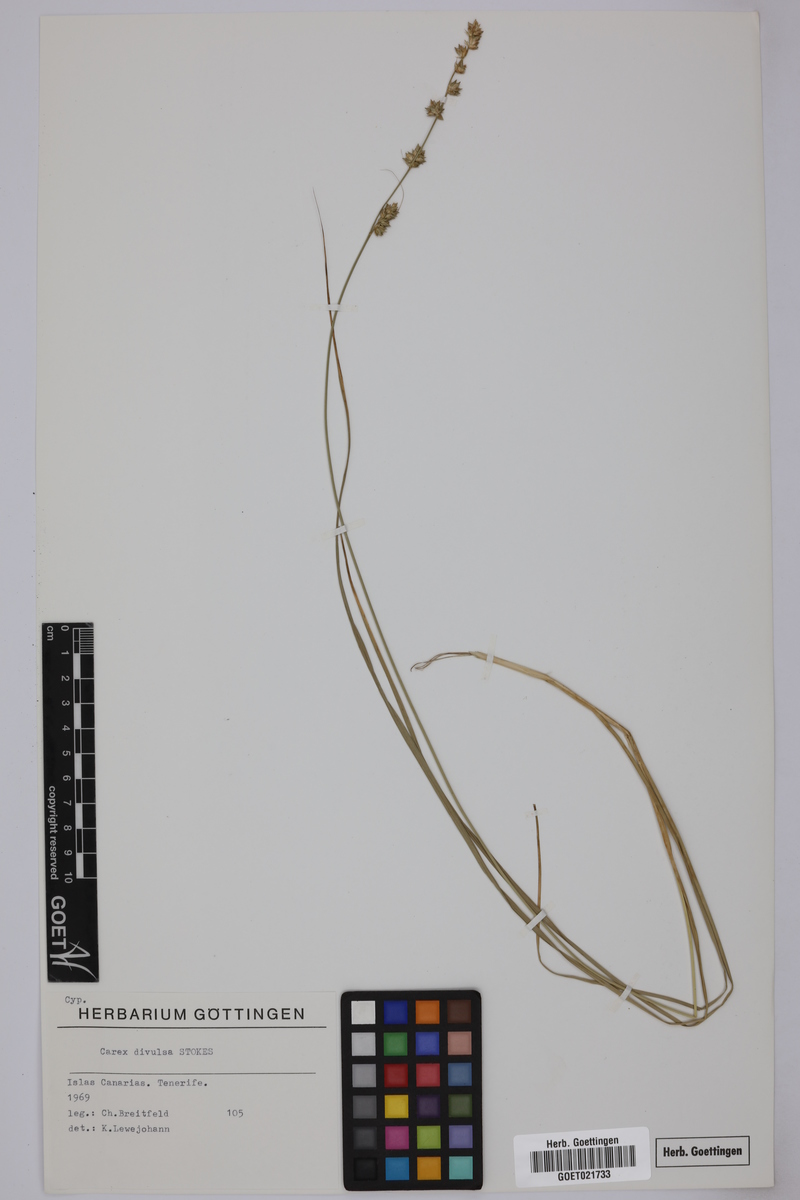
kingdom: Plantae
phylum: Tracheophyta
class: Liliopsida
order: Poales
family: Cyperaceae
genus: Carex
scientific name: Carex divulsa
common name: Grassland sedge
